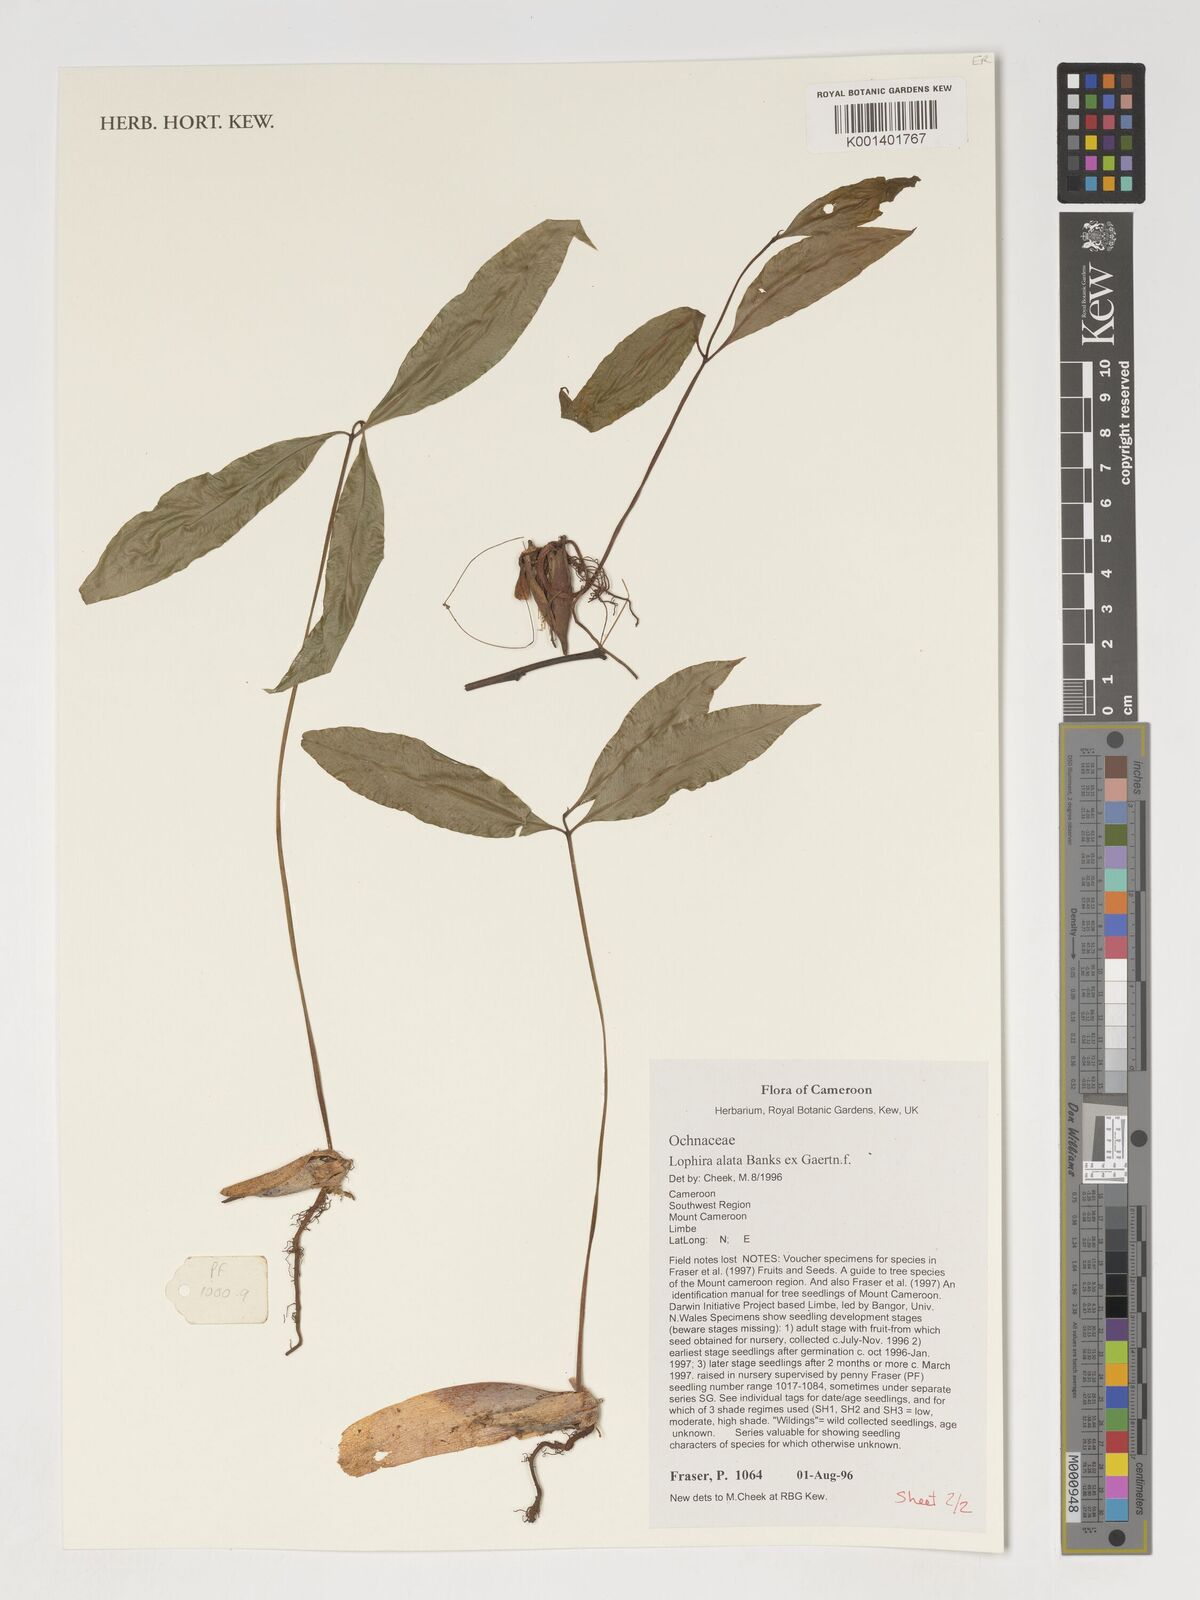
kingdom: Plantae
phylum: Tracheophyta
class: Magnoliopsida
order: Malpighiales
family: Ochnaceae
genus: Lophira
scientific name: Lophira alata
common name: Azobe
